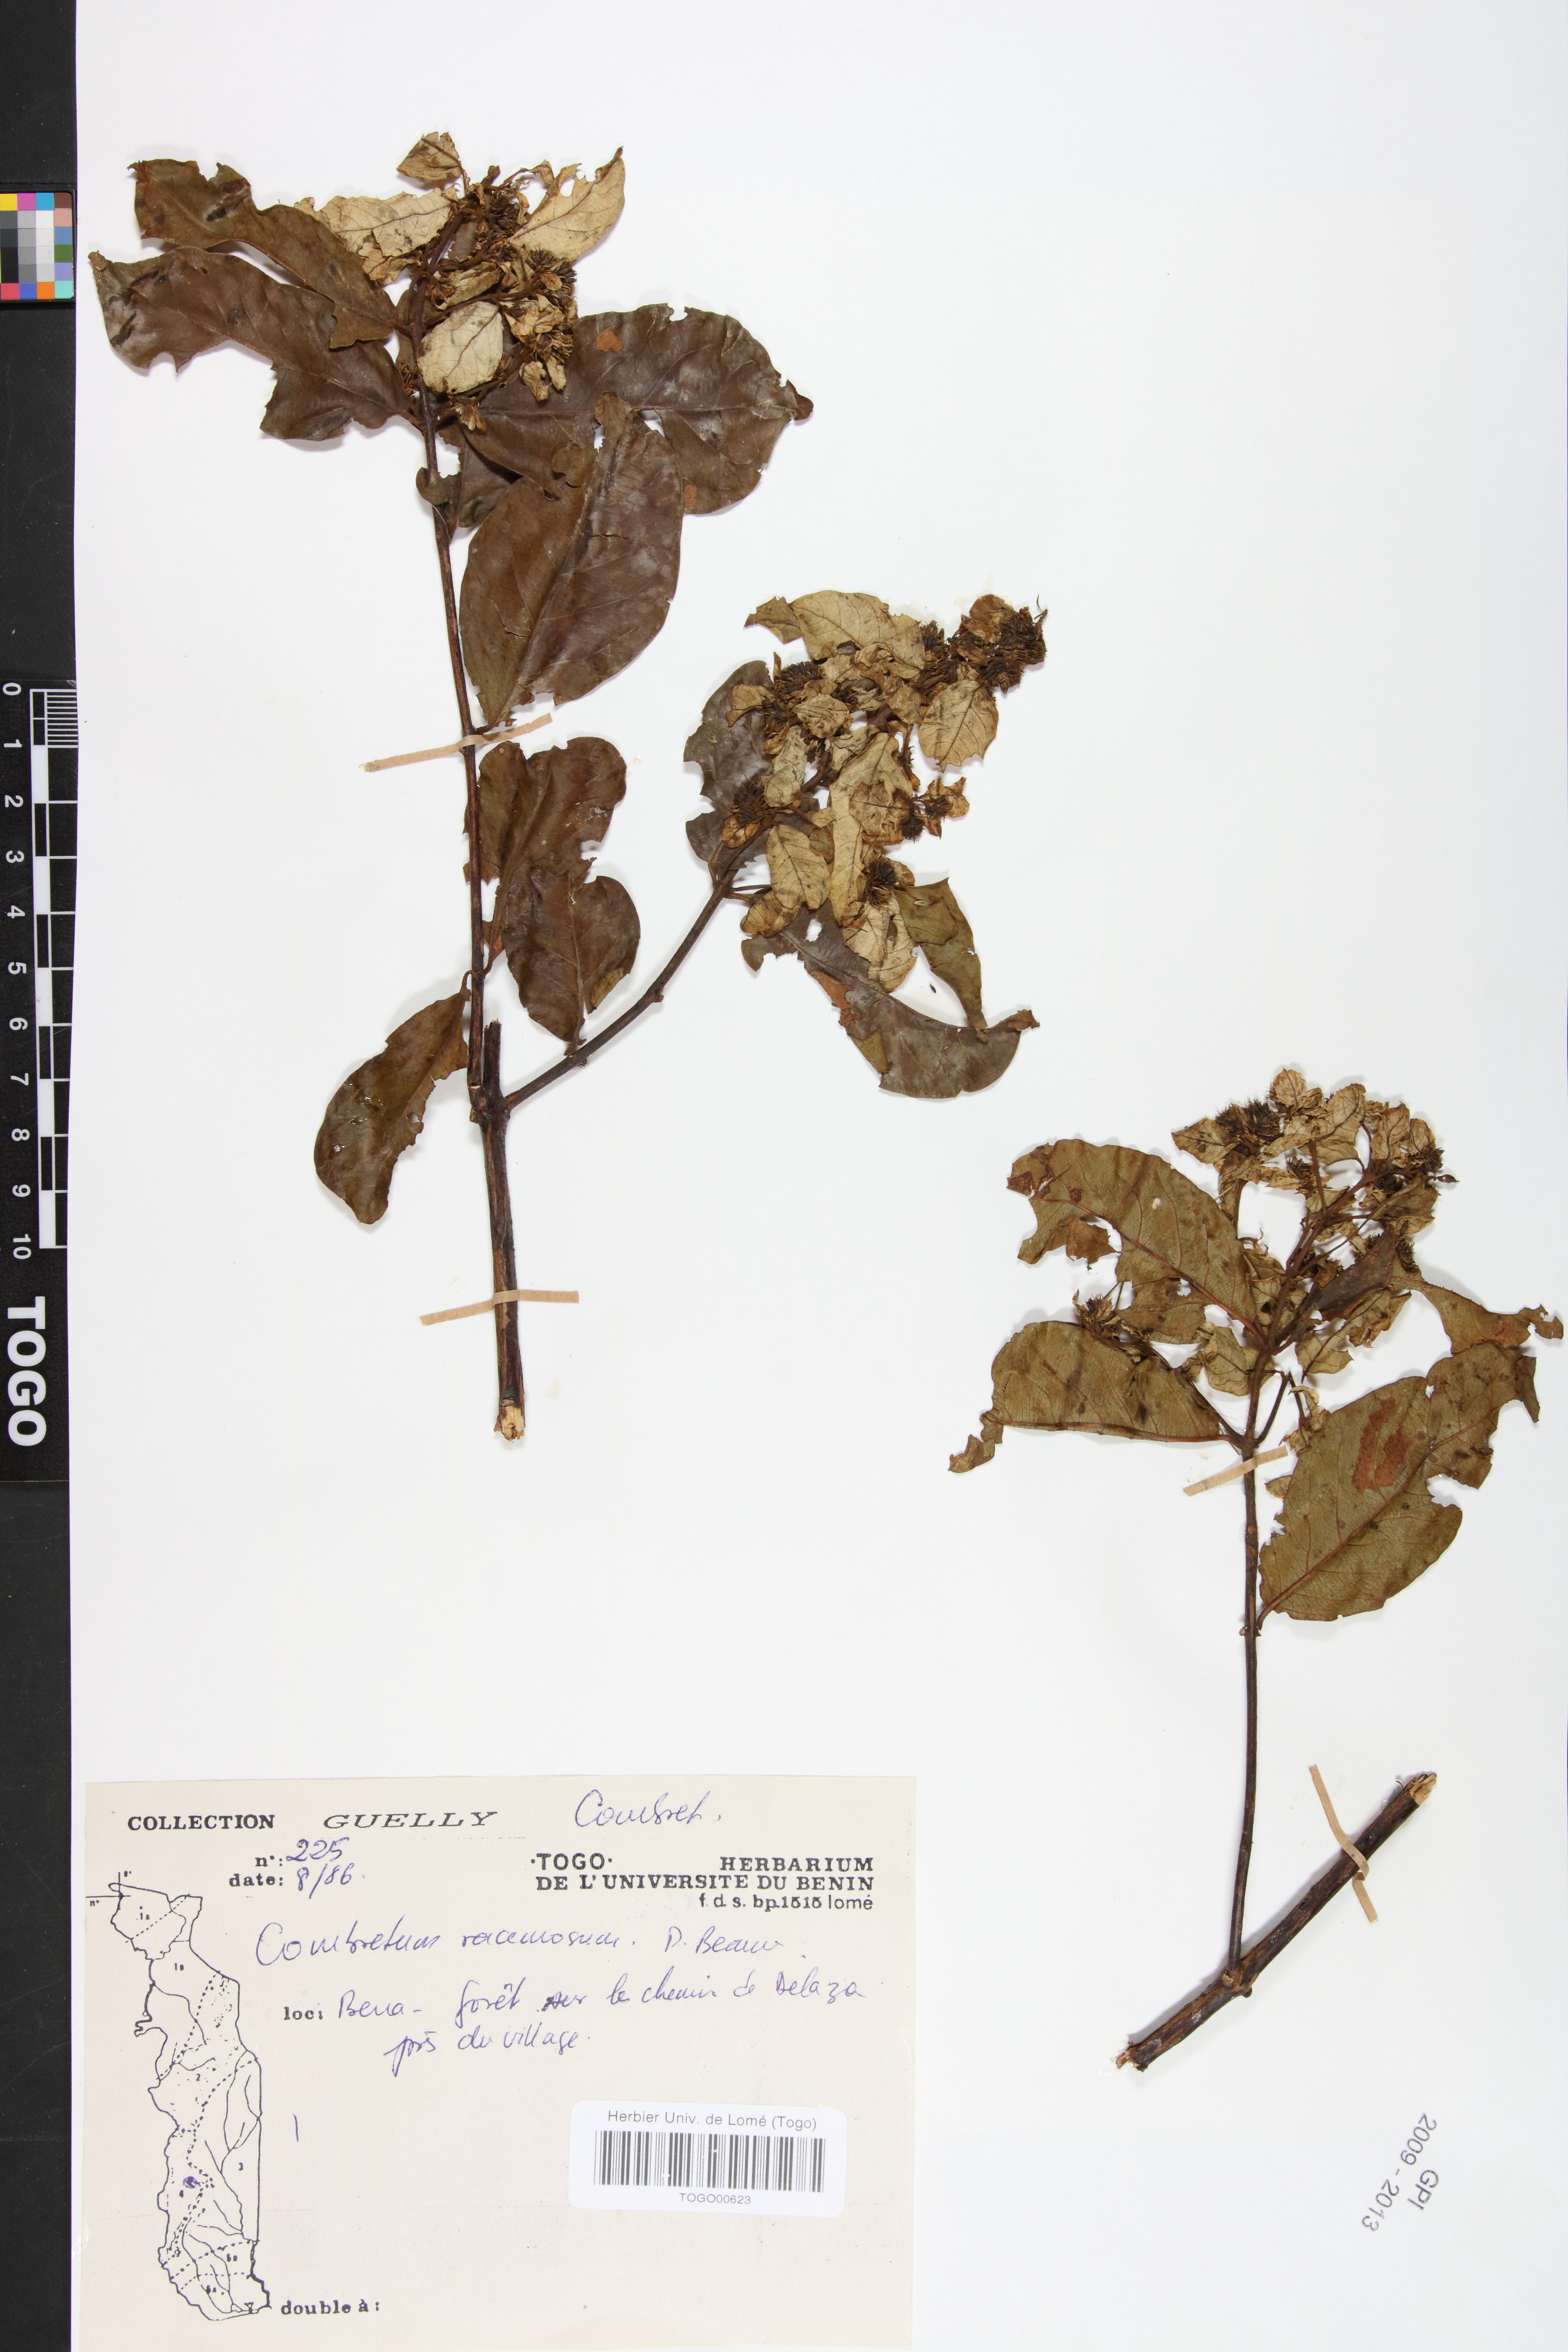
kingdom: Plantae
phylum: Tracheophyta
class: Magnoliopsida
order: Myrtales
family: Combretaceae
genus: Combretum
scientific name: Combretum racemosum
